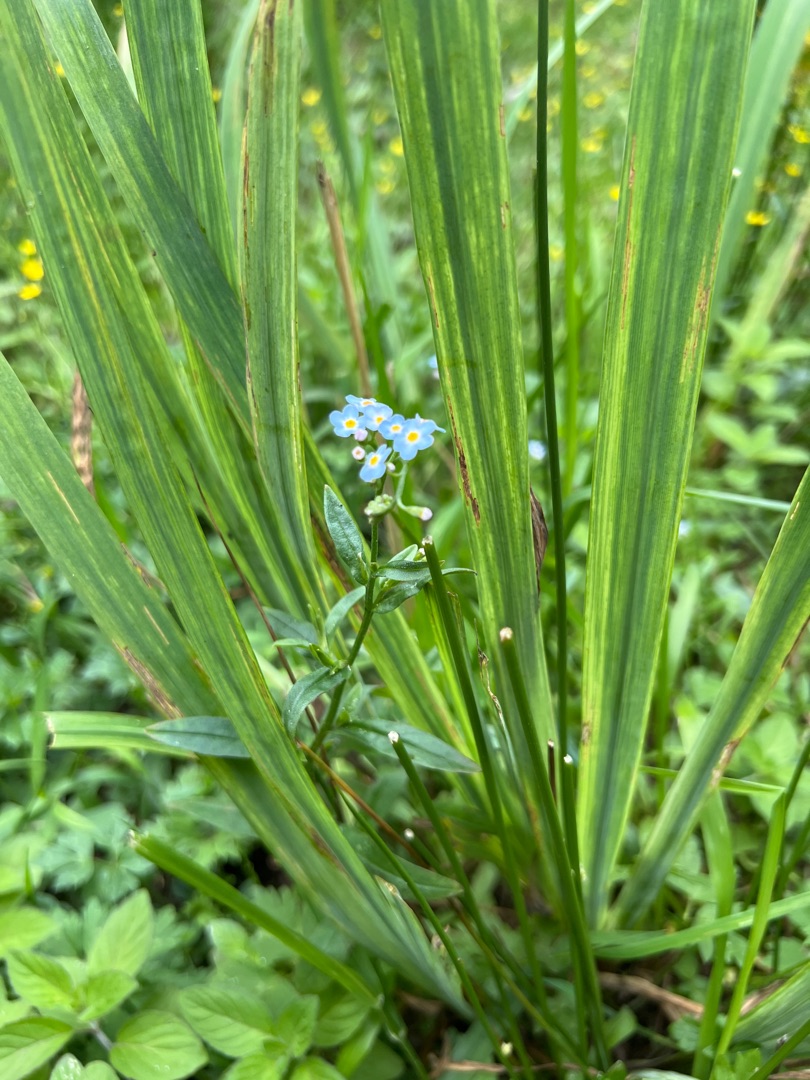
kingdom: Plantae
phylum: Tracheophyta
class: Magnoliopsida
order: Boraginales
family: Boraginaceae
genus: Myosotis
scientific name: Myosotis scorpioides
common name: Eng-forglemmigej
